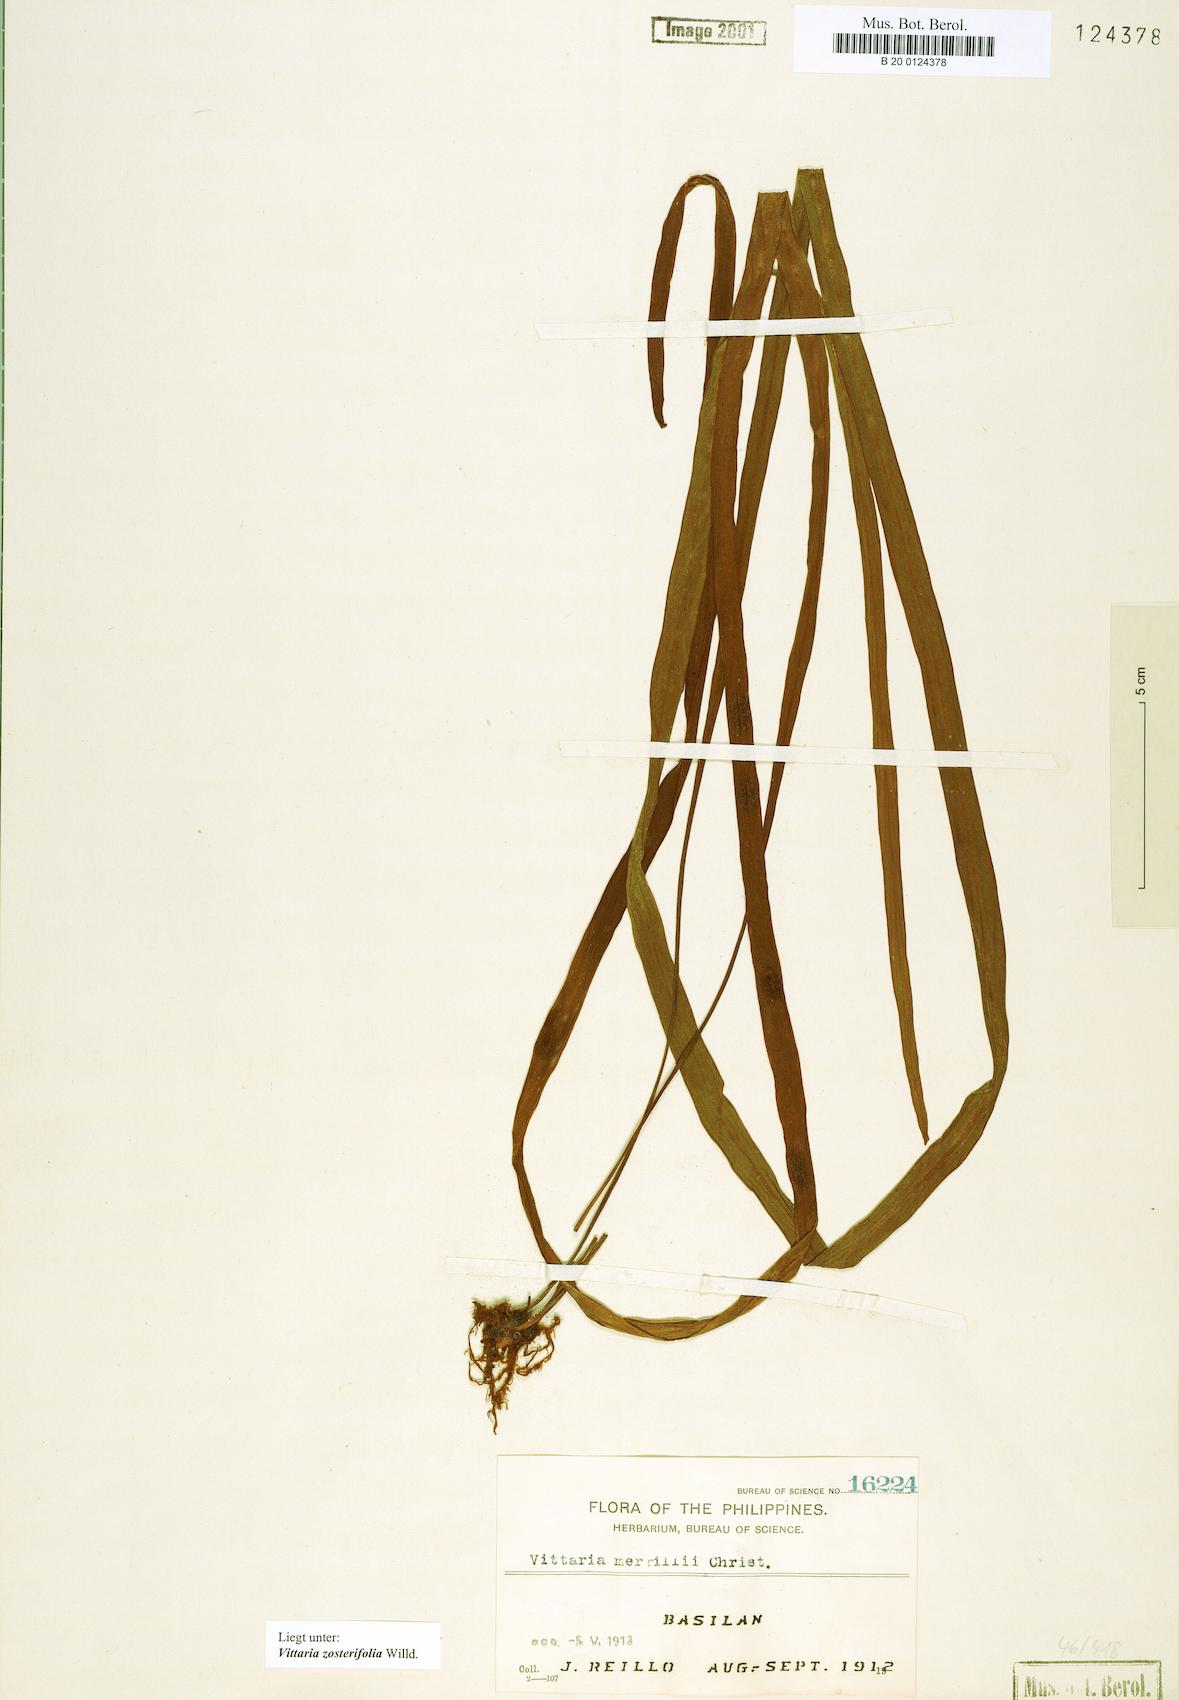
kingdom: Plantae
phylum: Tracheophyta
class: Polypodiopsida
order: Polypodiales
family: Pteridaceae
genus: Haplopteris
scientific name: Haplopteris zosterifolia
